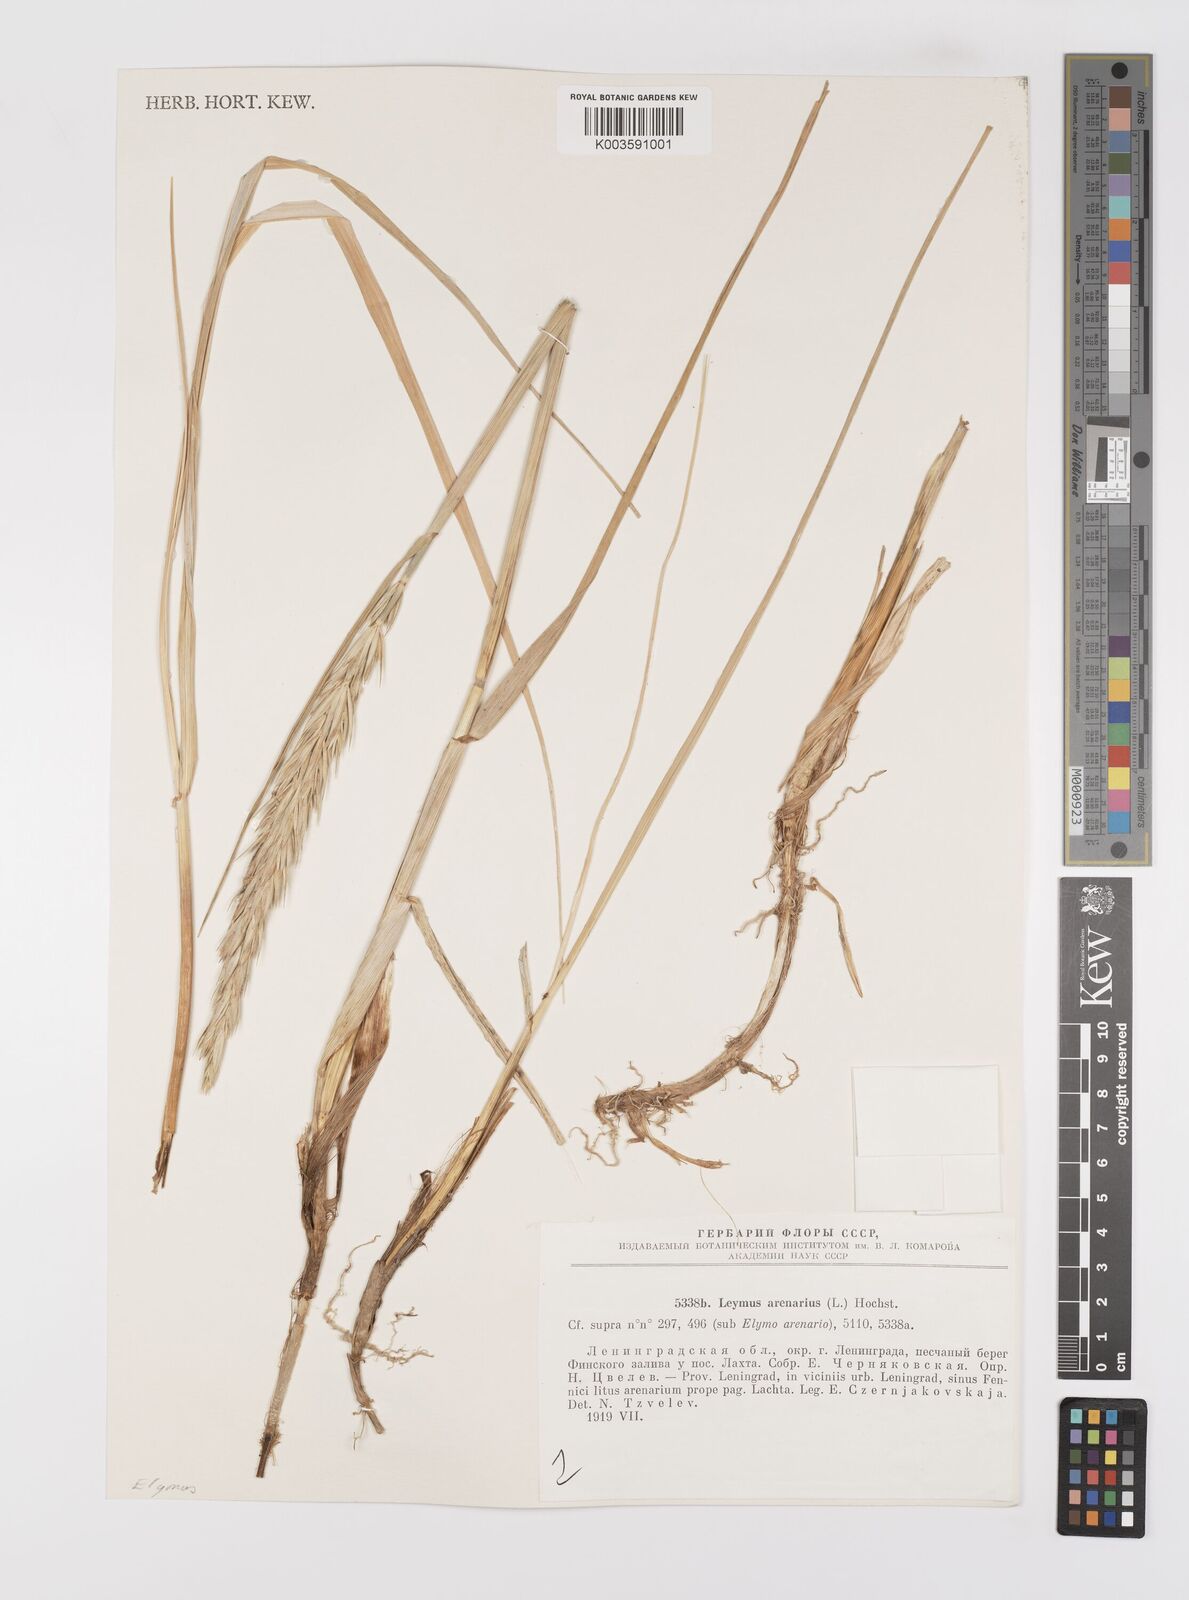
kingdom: Plantae
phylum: Tracheophyta
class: Liliopsida
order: Poales
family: Poaceae
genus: Leymus
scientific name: Leymus arenarius
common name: Lyme-grass
